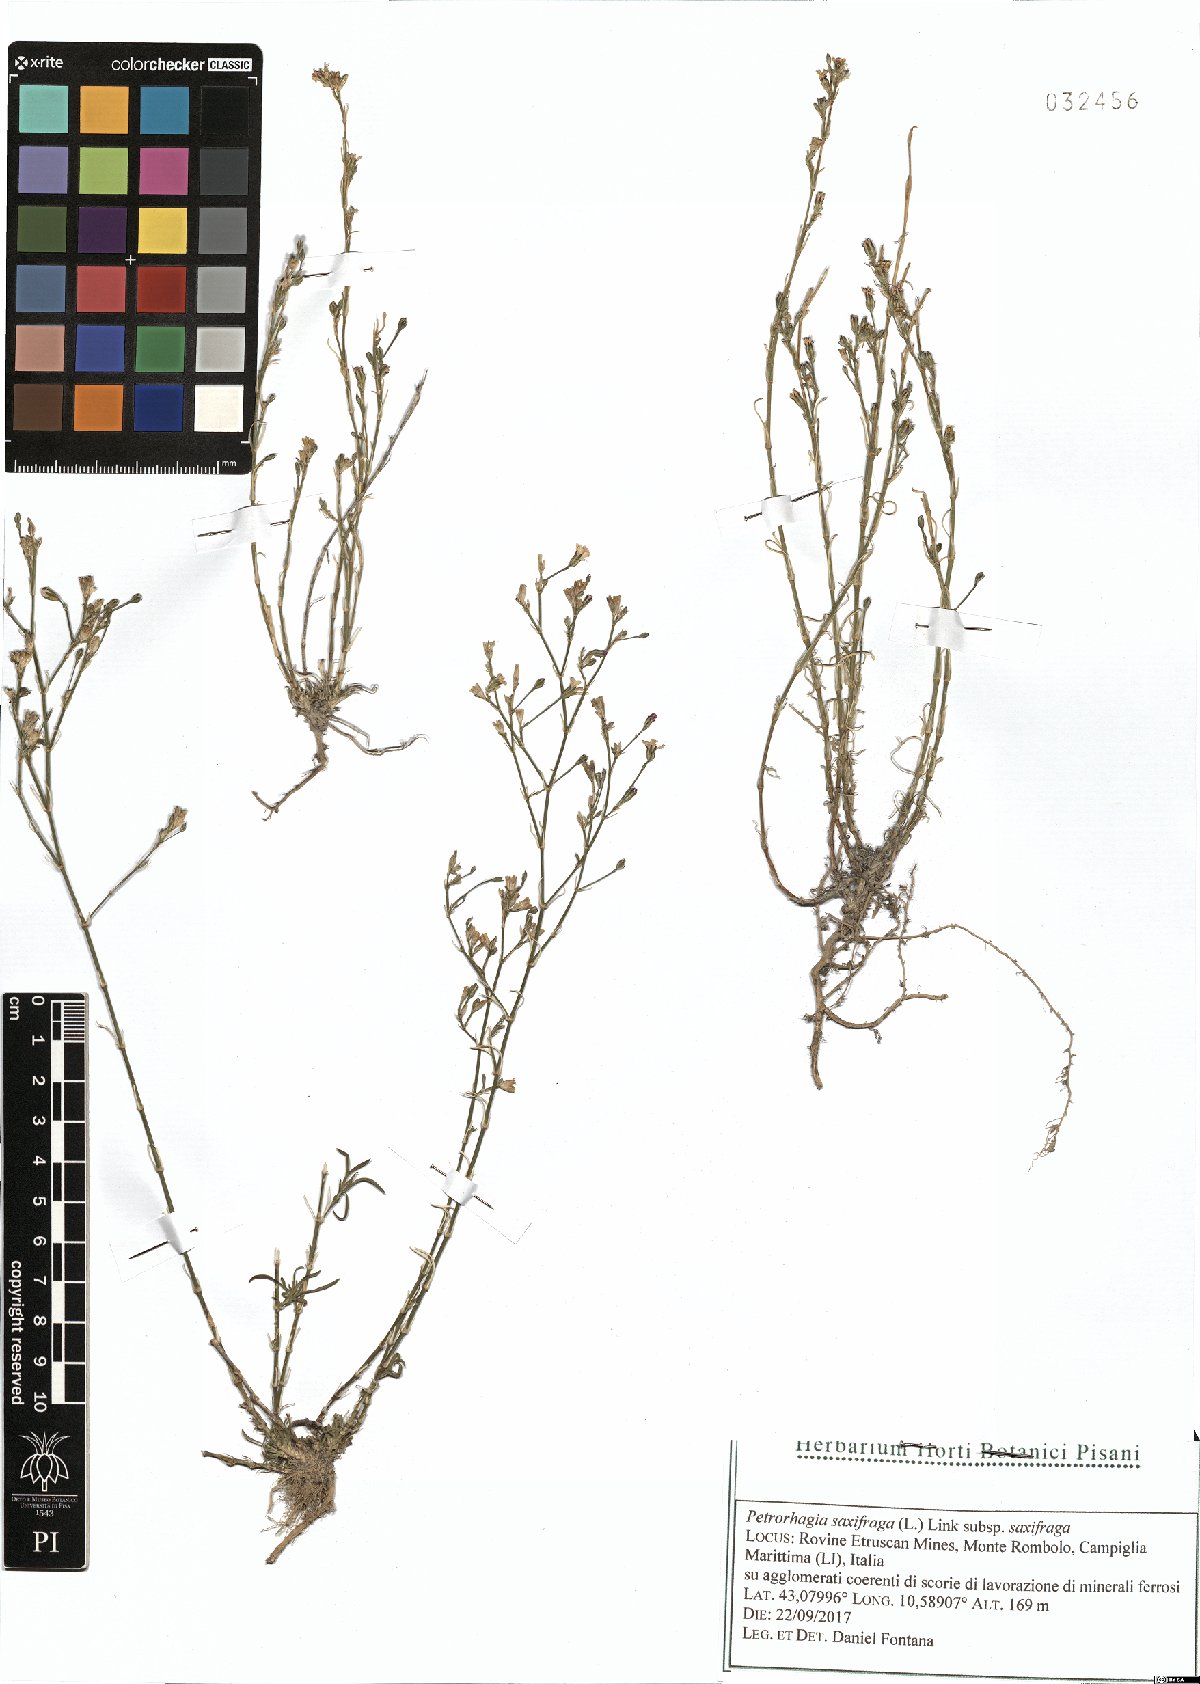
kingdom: Plantae
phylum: Tracheophyta
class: Magnoliopsida
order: Caryophyllales
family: Caryophyllaceae
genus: Petrorhagia
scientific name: Petrorhagia saxifraga
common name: Tunicflower
